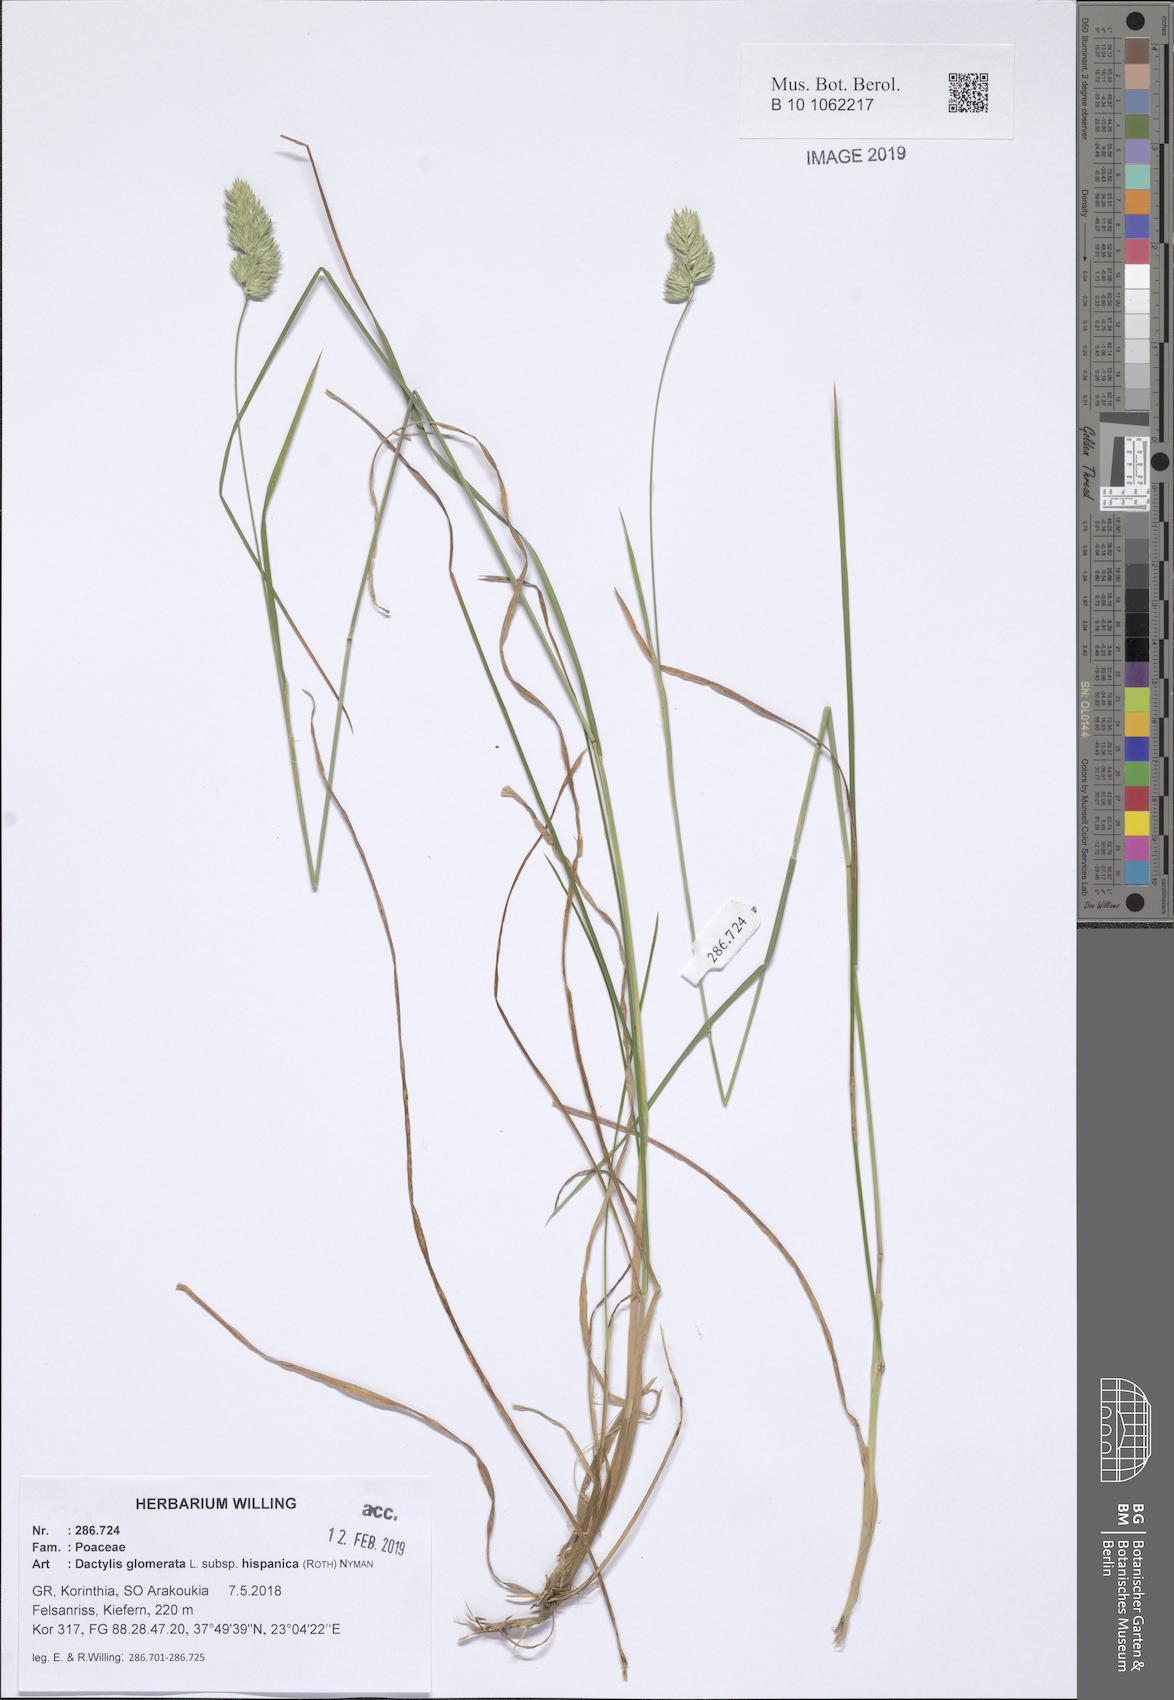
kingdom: Plantae
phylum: Tracheophyta
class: Liliopsida
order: Poales
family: Poaceae
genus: Dactylis
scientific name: Dactylis glomerata
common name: Orchardgrass
